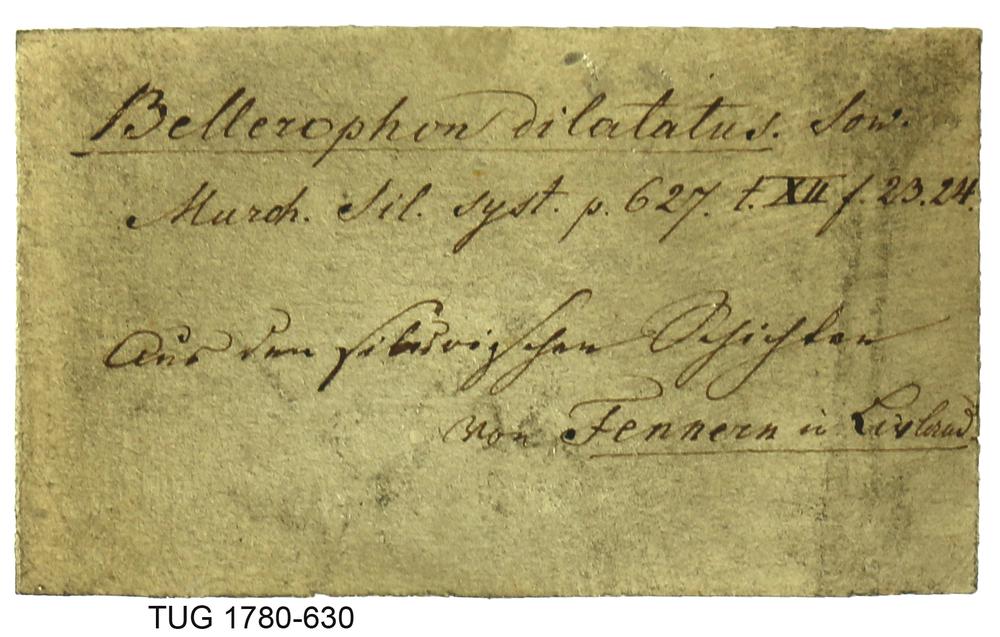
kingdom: Animalia
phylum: Mollusca
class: Gastropoda
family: Bucaniidae
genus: Boiotremus
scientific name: Boiotremus Tremanotus longitudinalis
